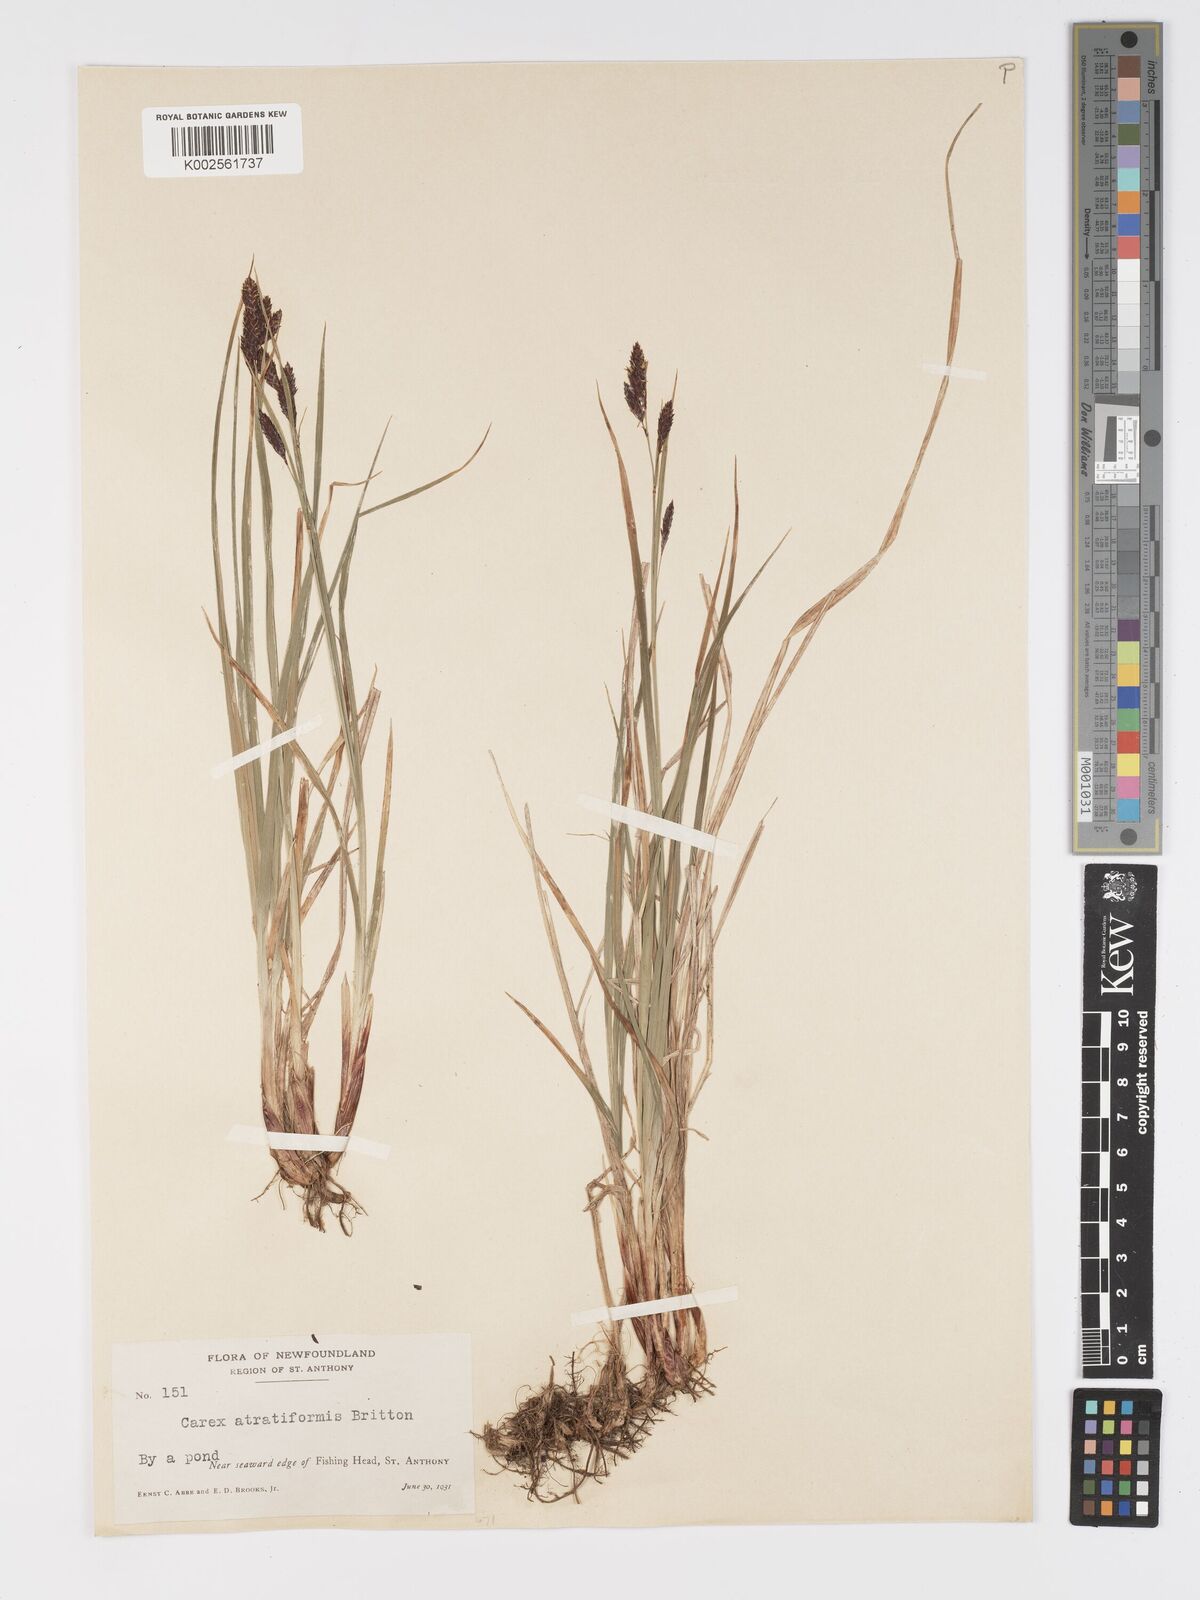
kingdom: Plantae
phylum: Tracheophyta
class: Liliopsida
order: Poales
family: Cyperaceae
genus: Carex
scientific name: Carex atratiformis
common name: Black sedge
